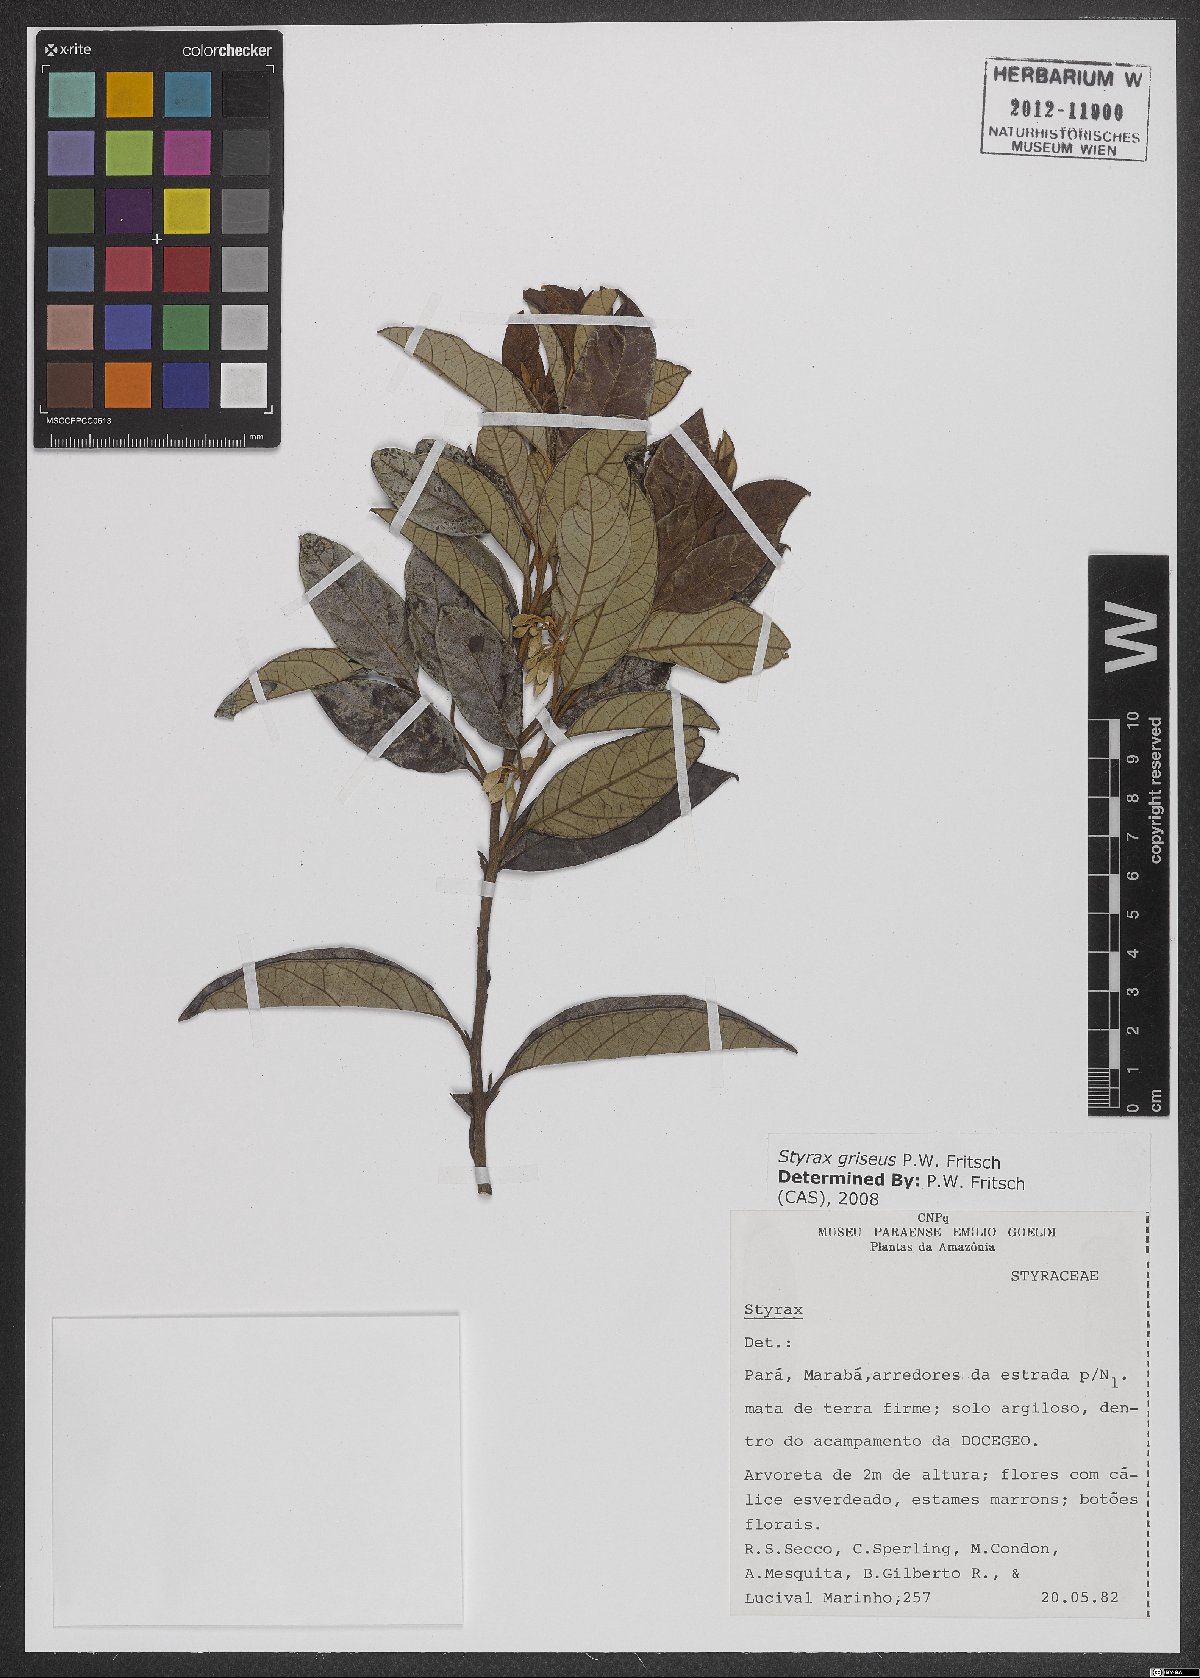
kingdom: Plantae
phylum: Tracheophyta
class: Magnoliopsida
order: Ericales
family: Styracaceae
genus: Styrax
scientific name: Styrax kuhlmannii
